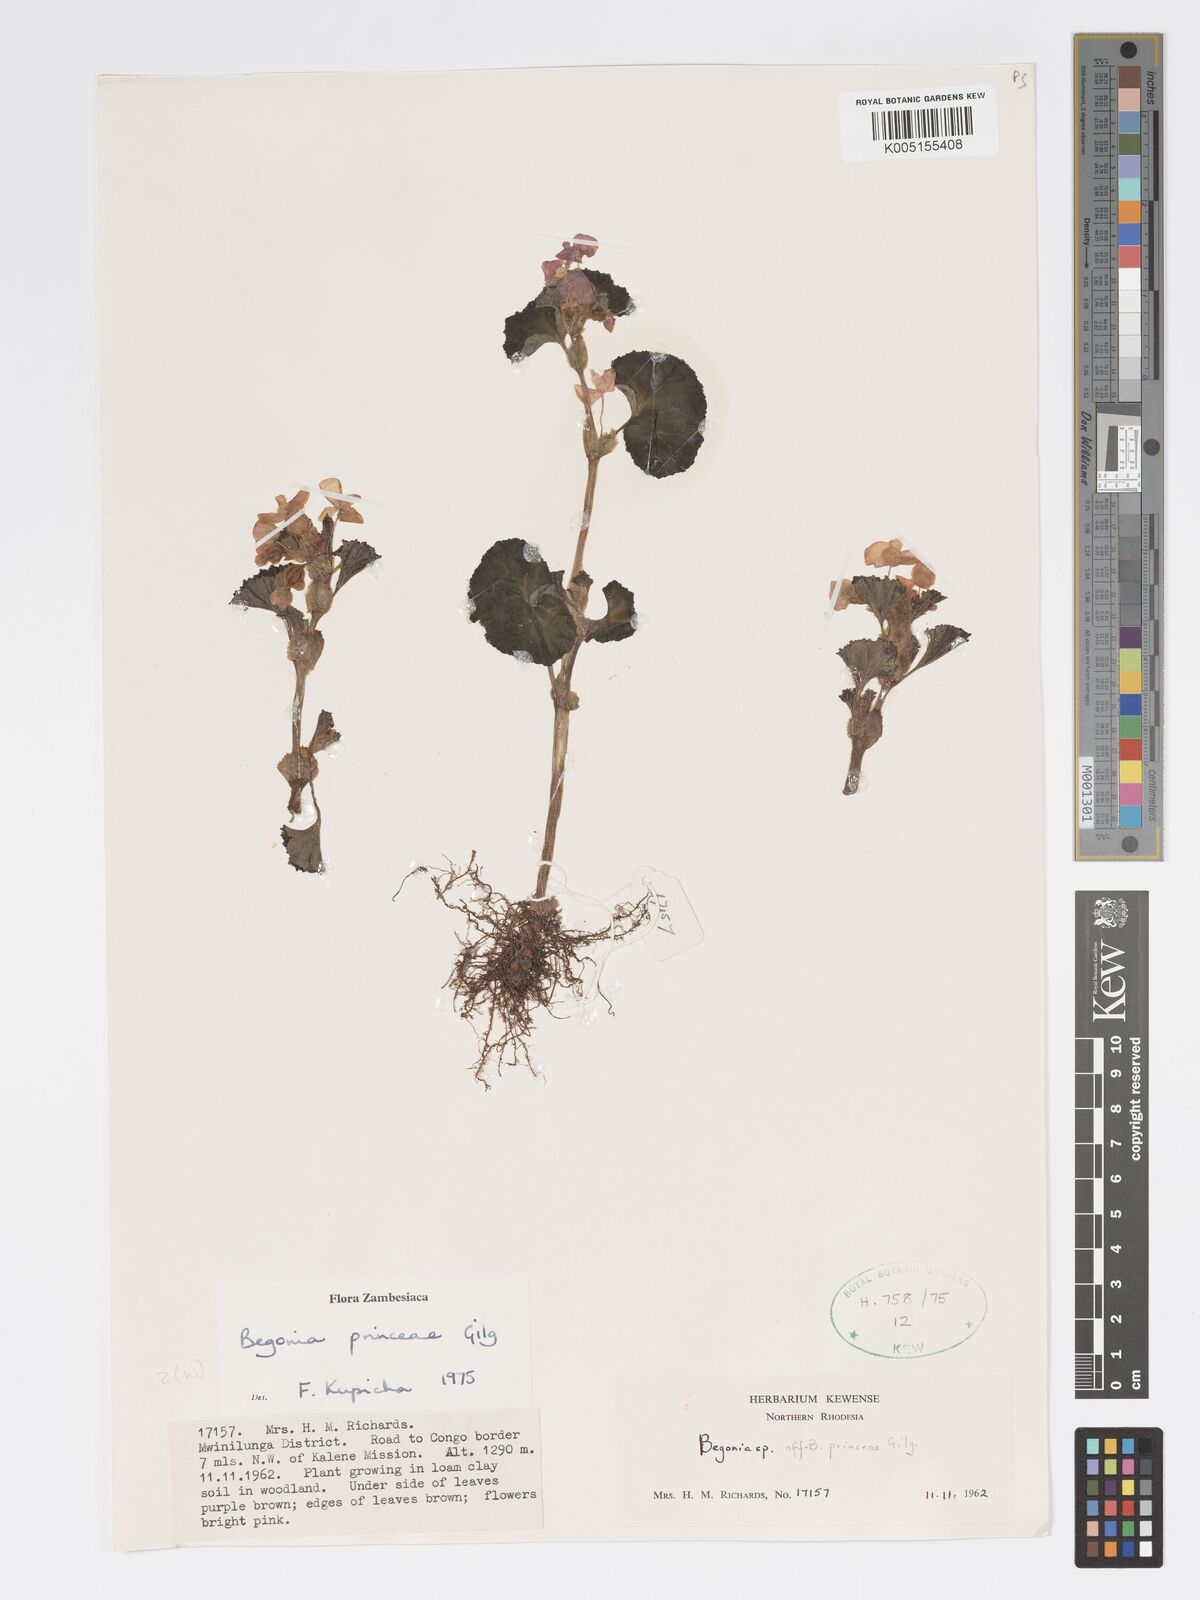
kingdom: Plantae
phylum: Tracheophyta
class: Magnoliopsida
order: Cucurbitales
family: Begoniaceae
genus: Begonia
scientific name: Begonia princeae
